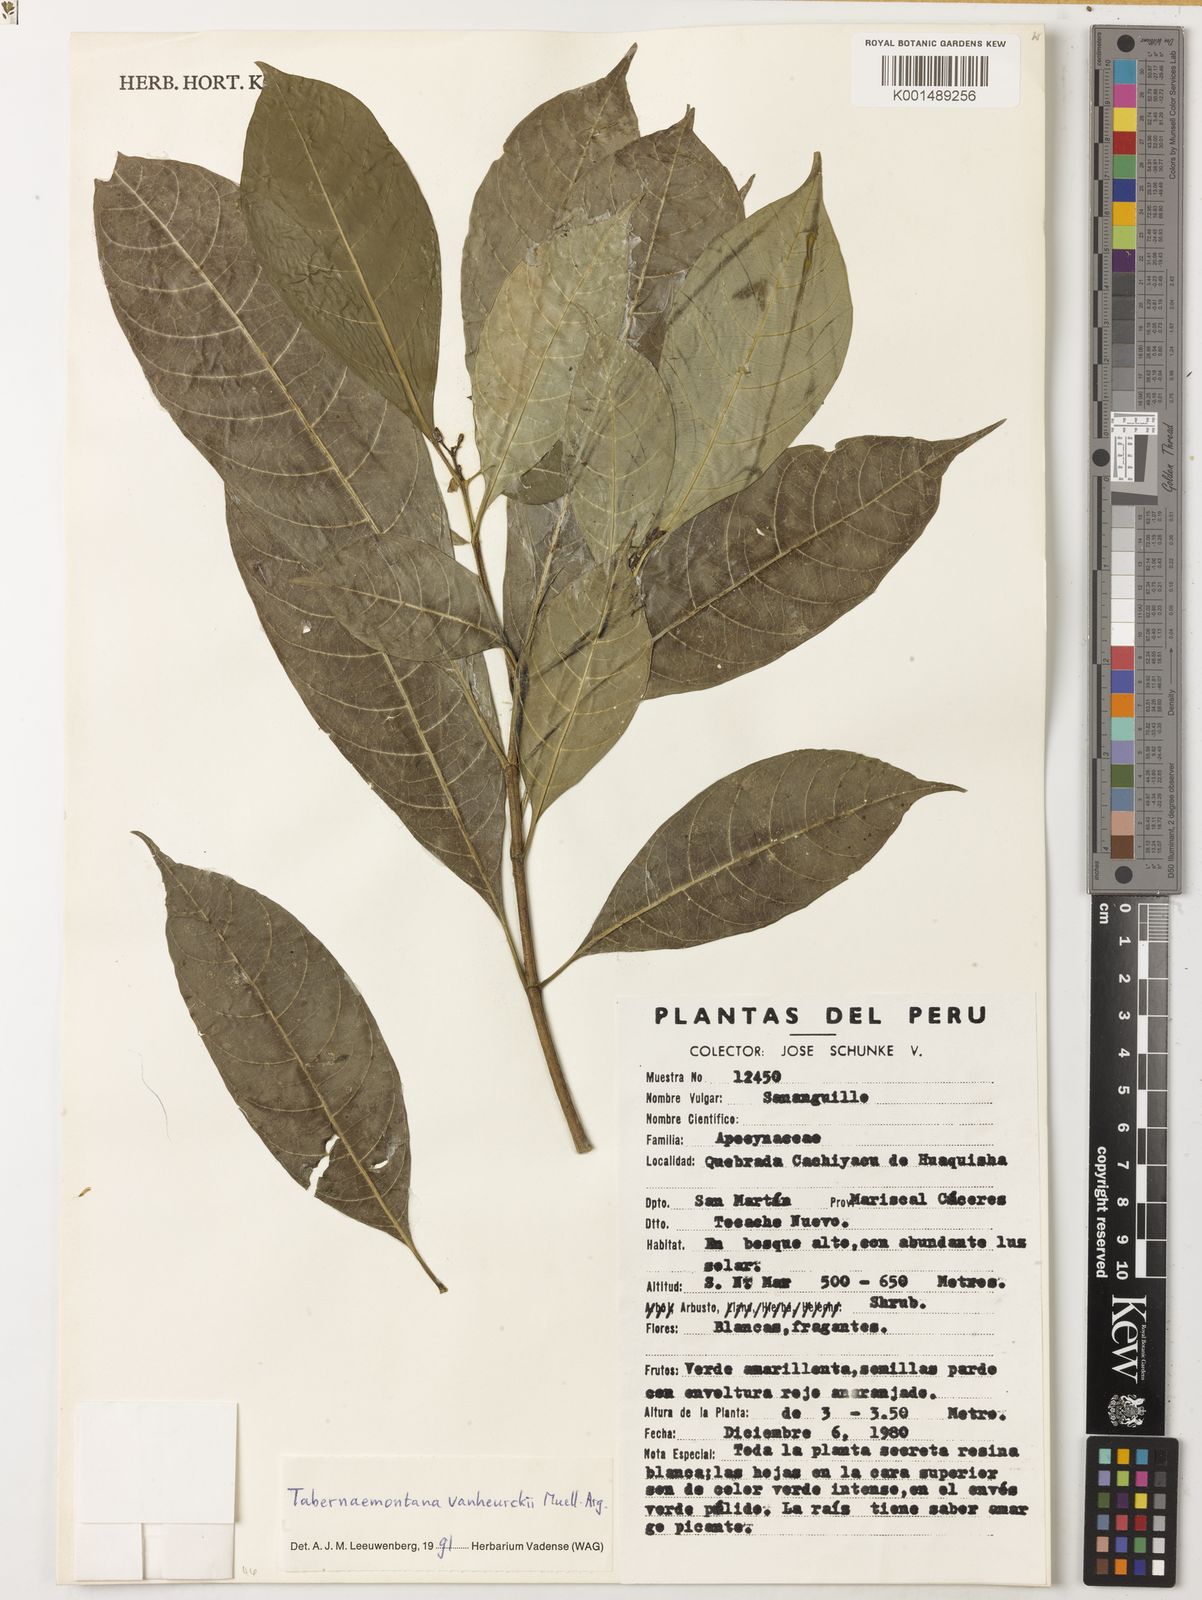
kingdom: Plantae
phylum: Tracheophyta
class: Magnoliopsida
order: Gentianales
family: Apocynaceae
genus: Tabernaemontana
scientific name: Tabernaemontana vanheurckii
